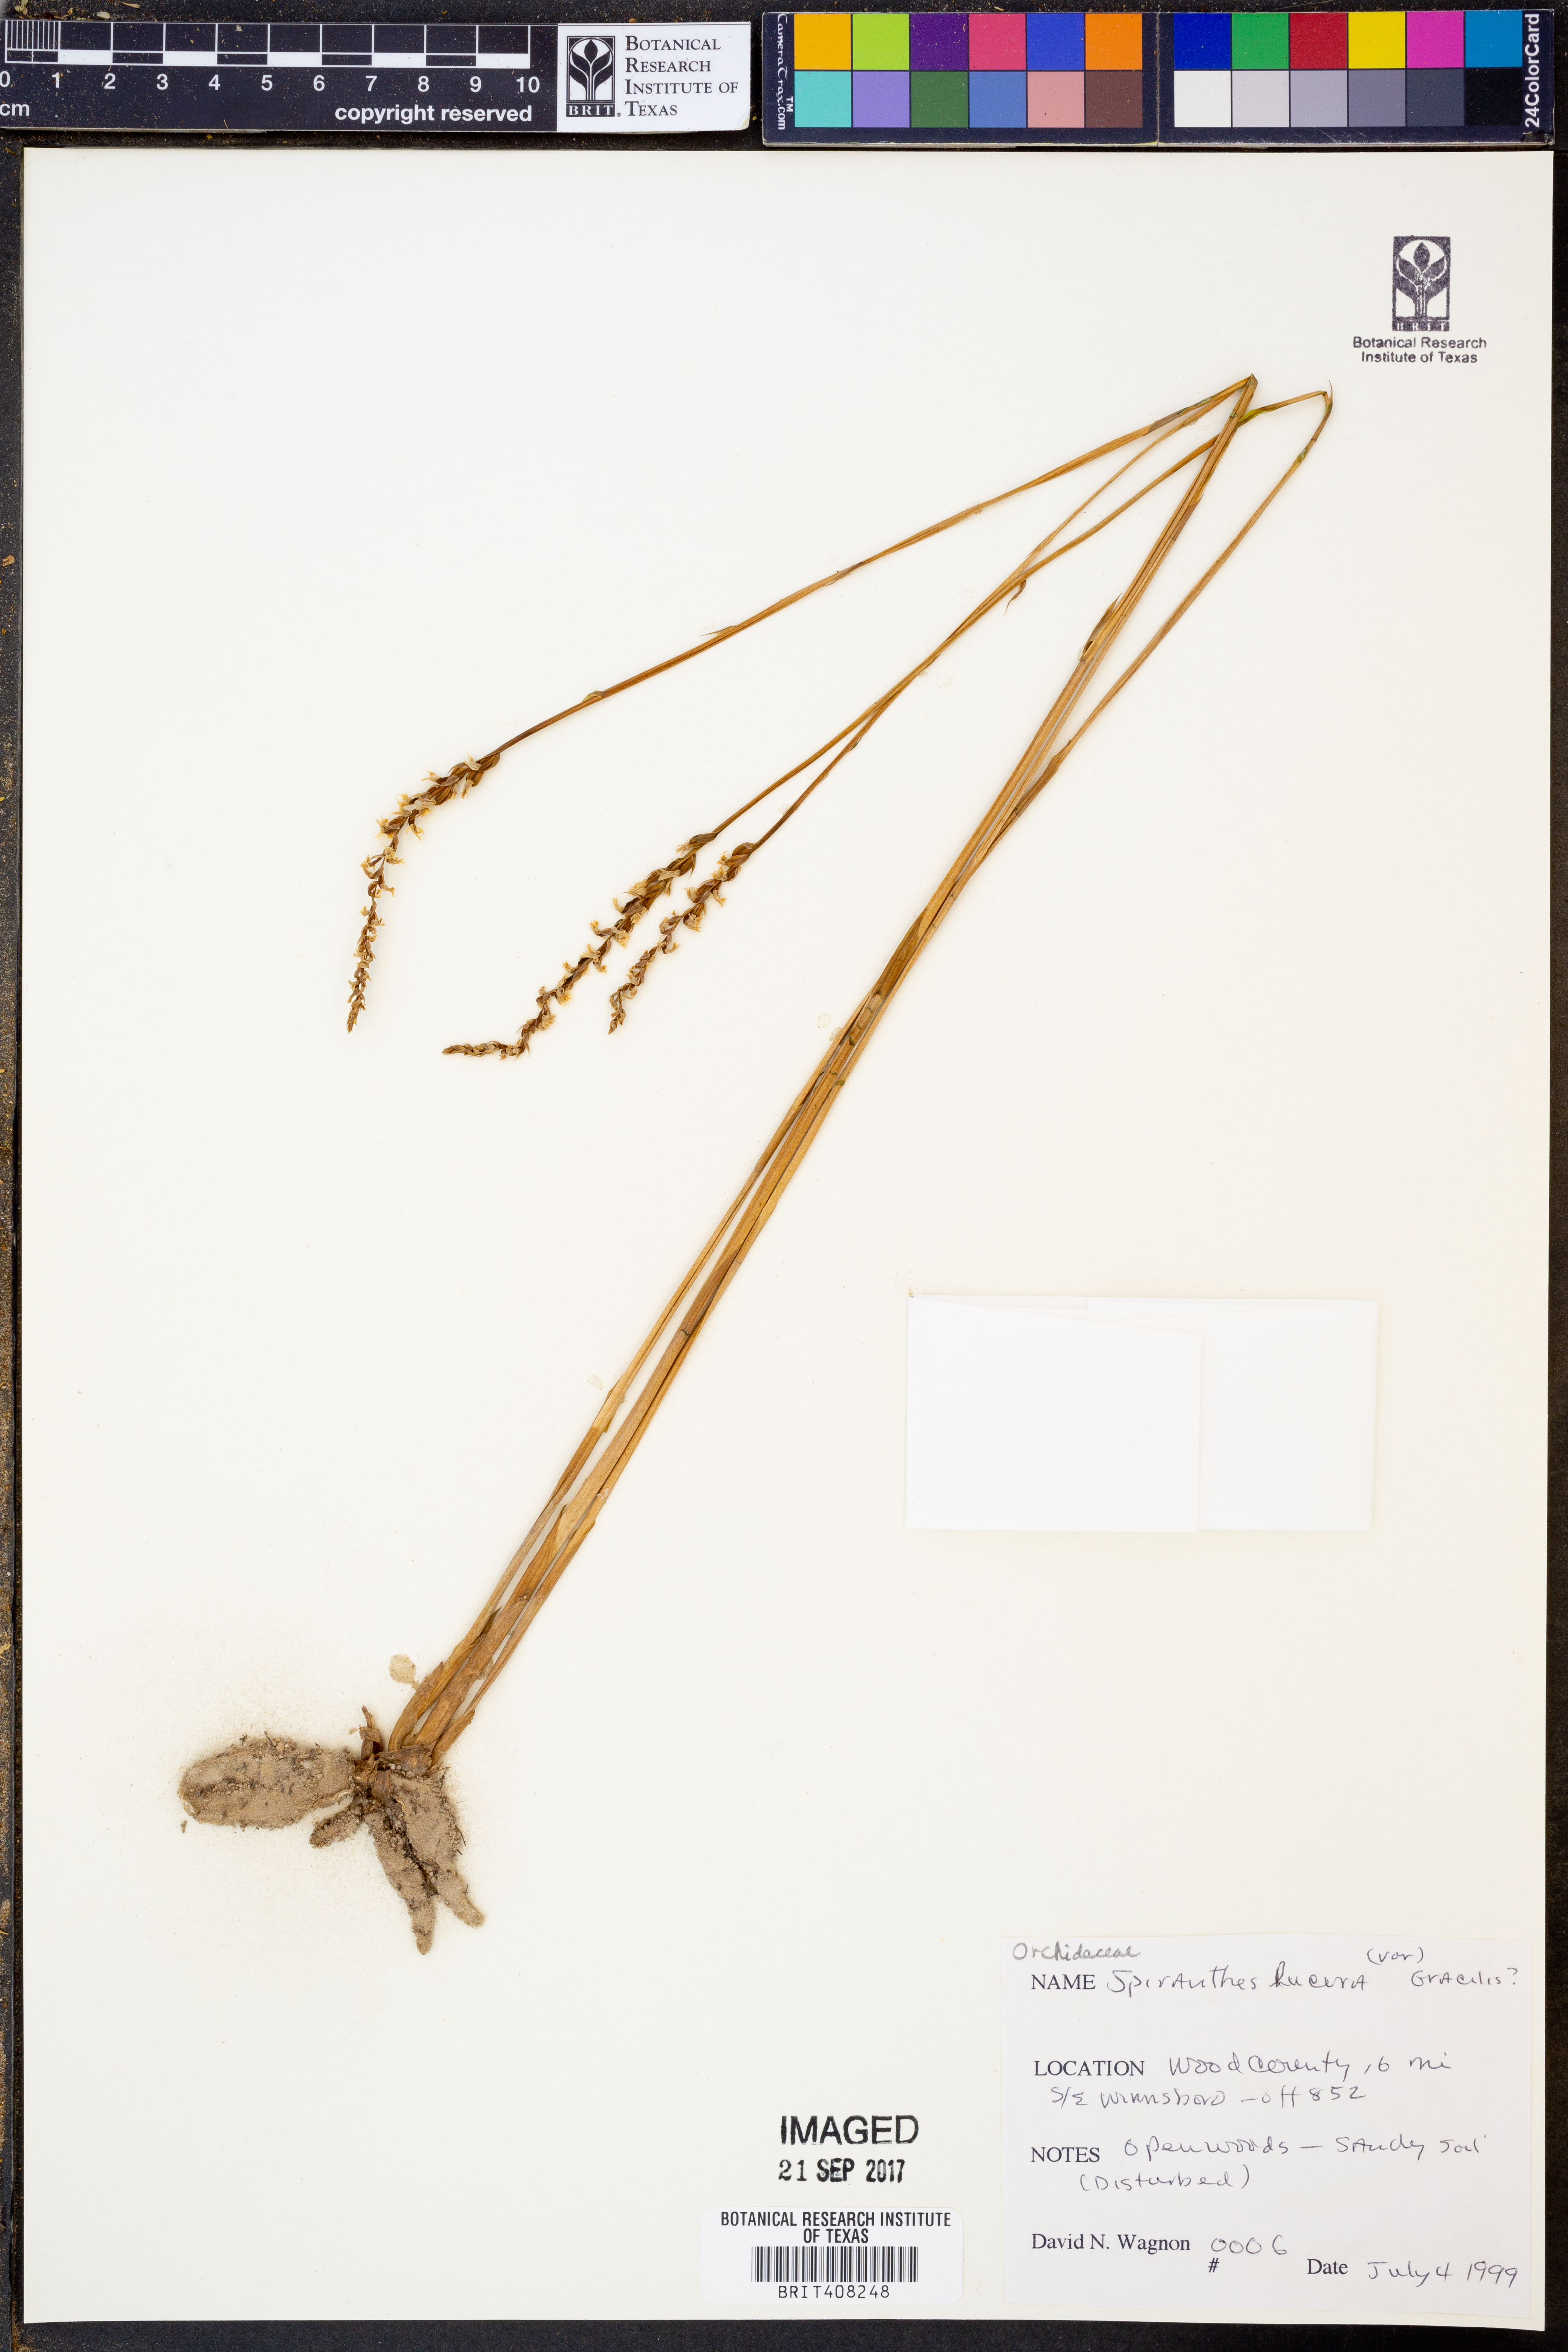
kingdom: Plantae
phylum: Tracheophyta
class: Liliopsida
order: Asparagales
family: Orchidaceae
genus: Spiranthes
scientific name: Spiranthes lacera
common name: Northern slender ladies'-tresses
